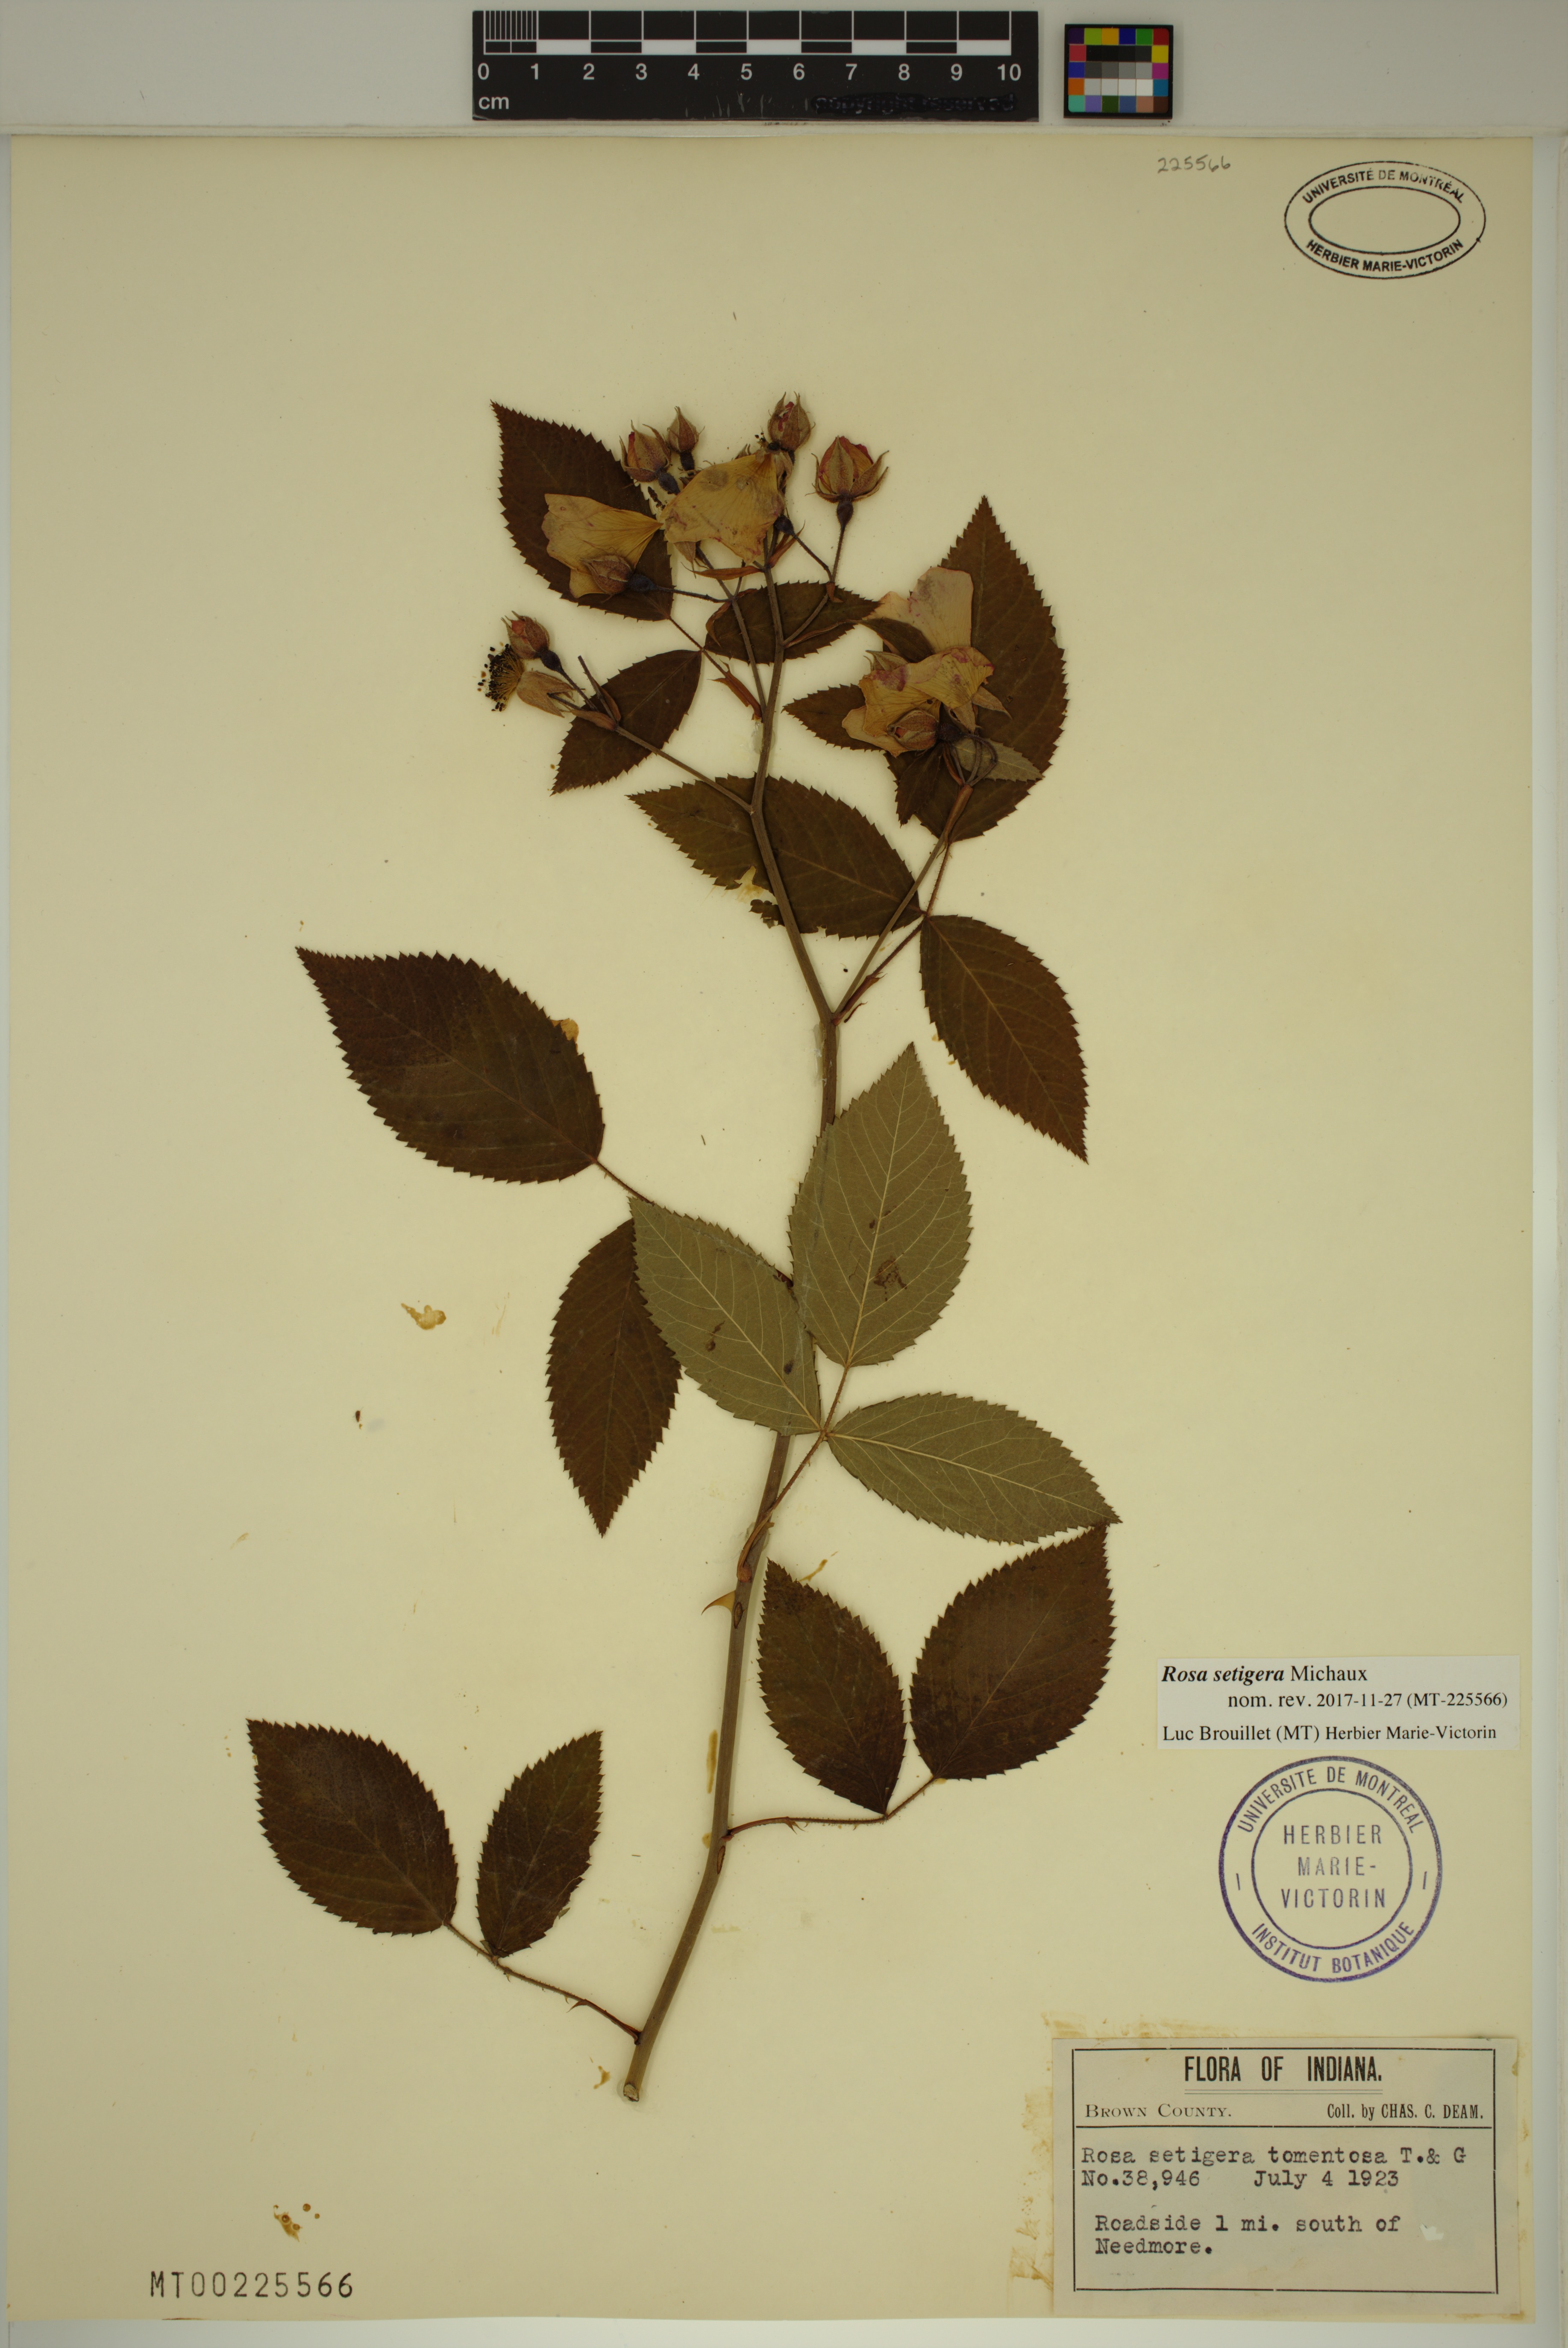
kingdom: Plantae
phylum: Tracheophyta
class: Magnoliopsida
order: Rosales
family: Rosaceae
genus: Rosa
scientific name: Rosa setigera
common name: Prairie rose
